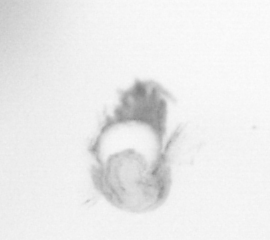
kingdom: Animalia
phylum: Annelida
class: Polychaeta
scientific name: Polychaeta
